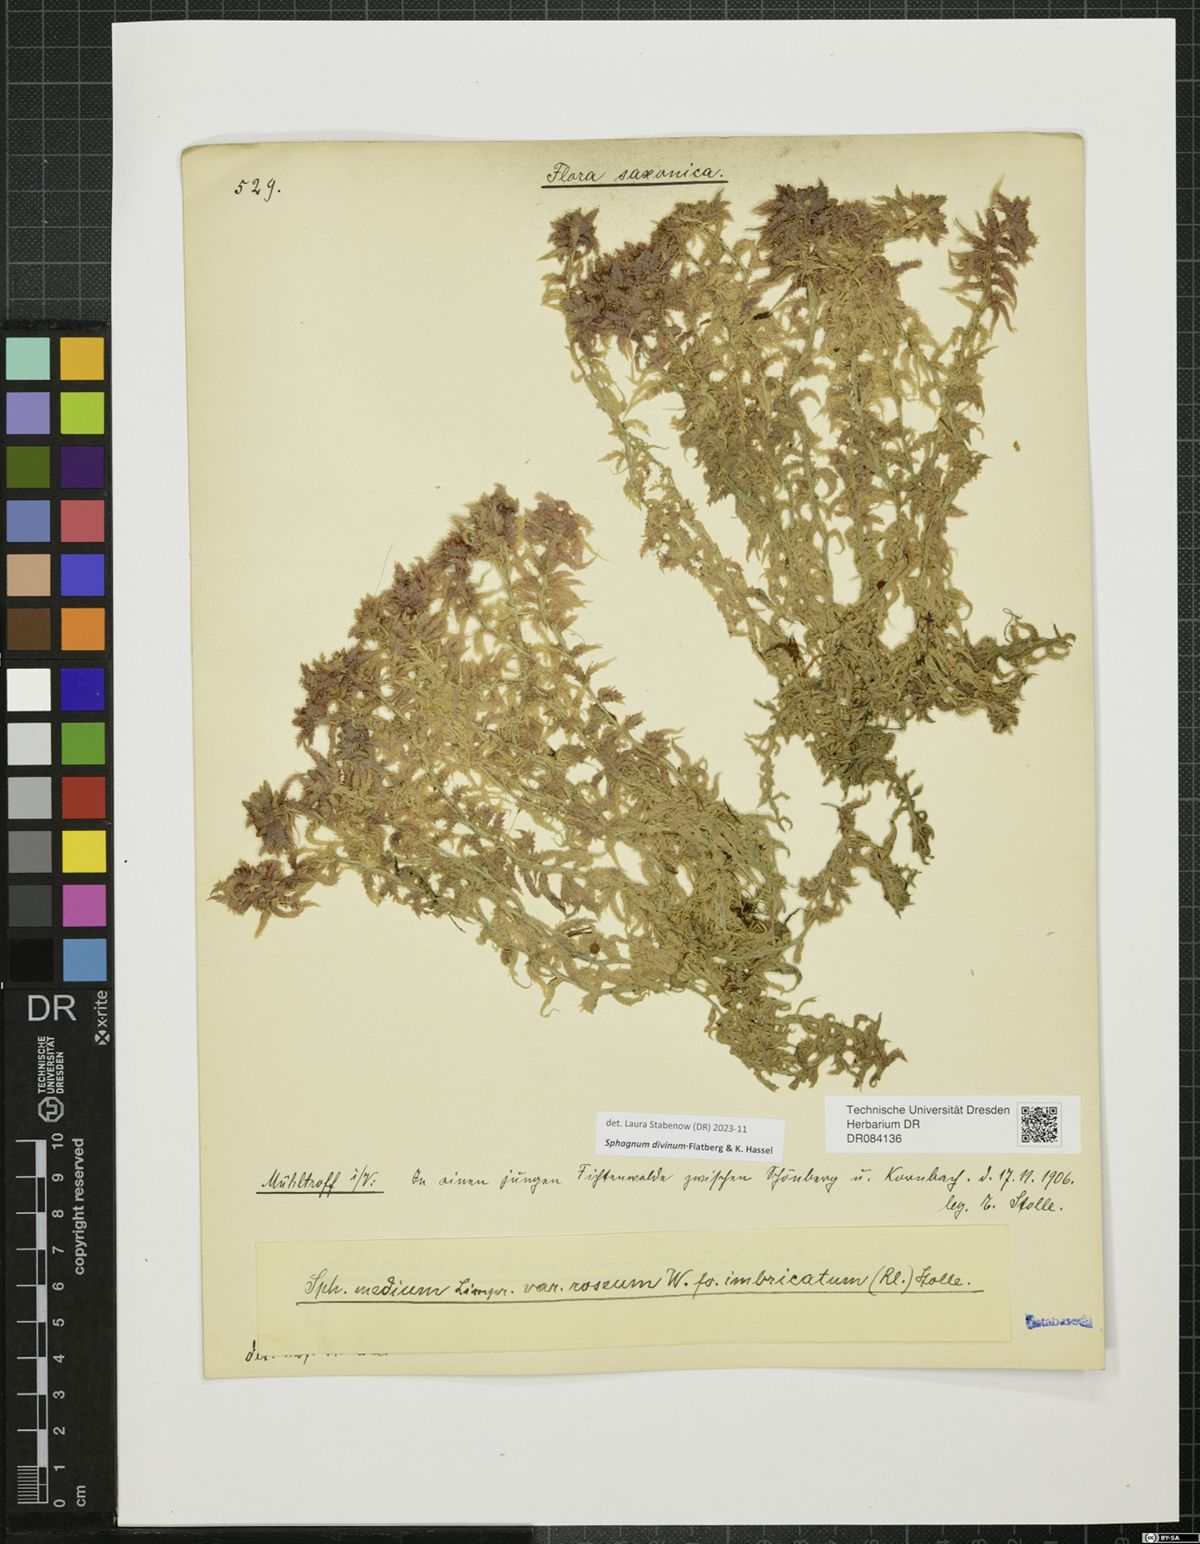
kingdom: Plantae
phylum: Bryophyta
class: Sphagnopsida
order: Sphagnales
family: Sphagnaceae
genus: Sphagnum
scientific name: Sphagnum divinum
